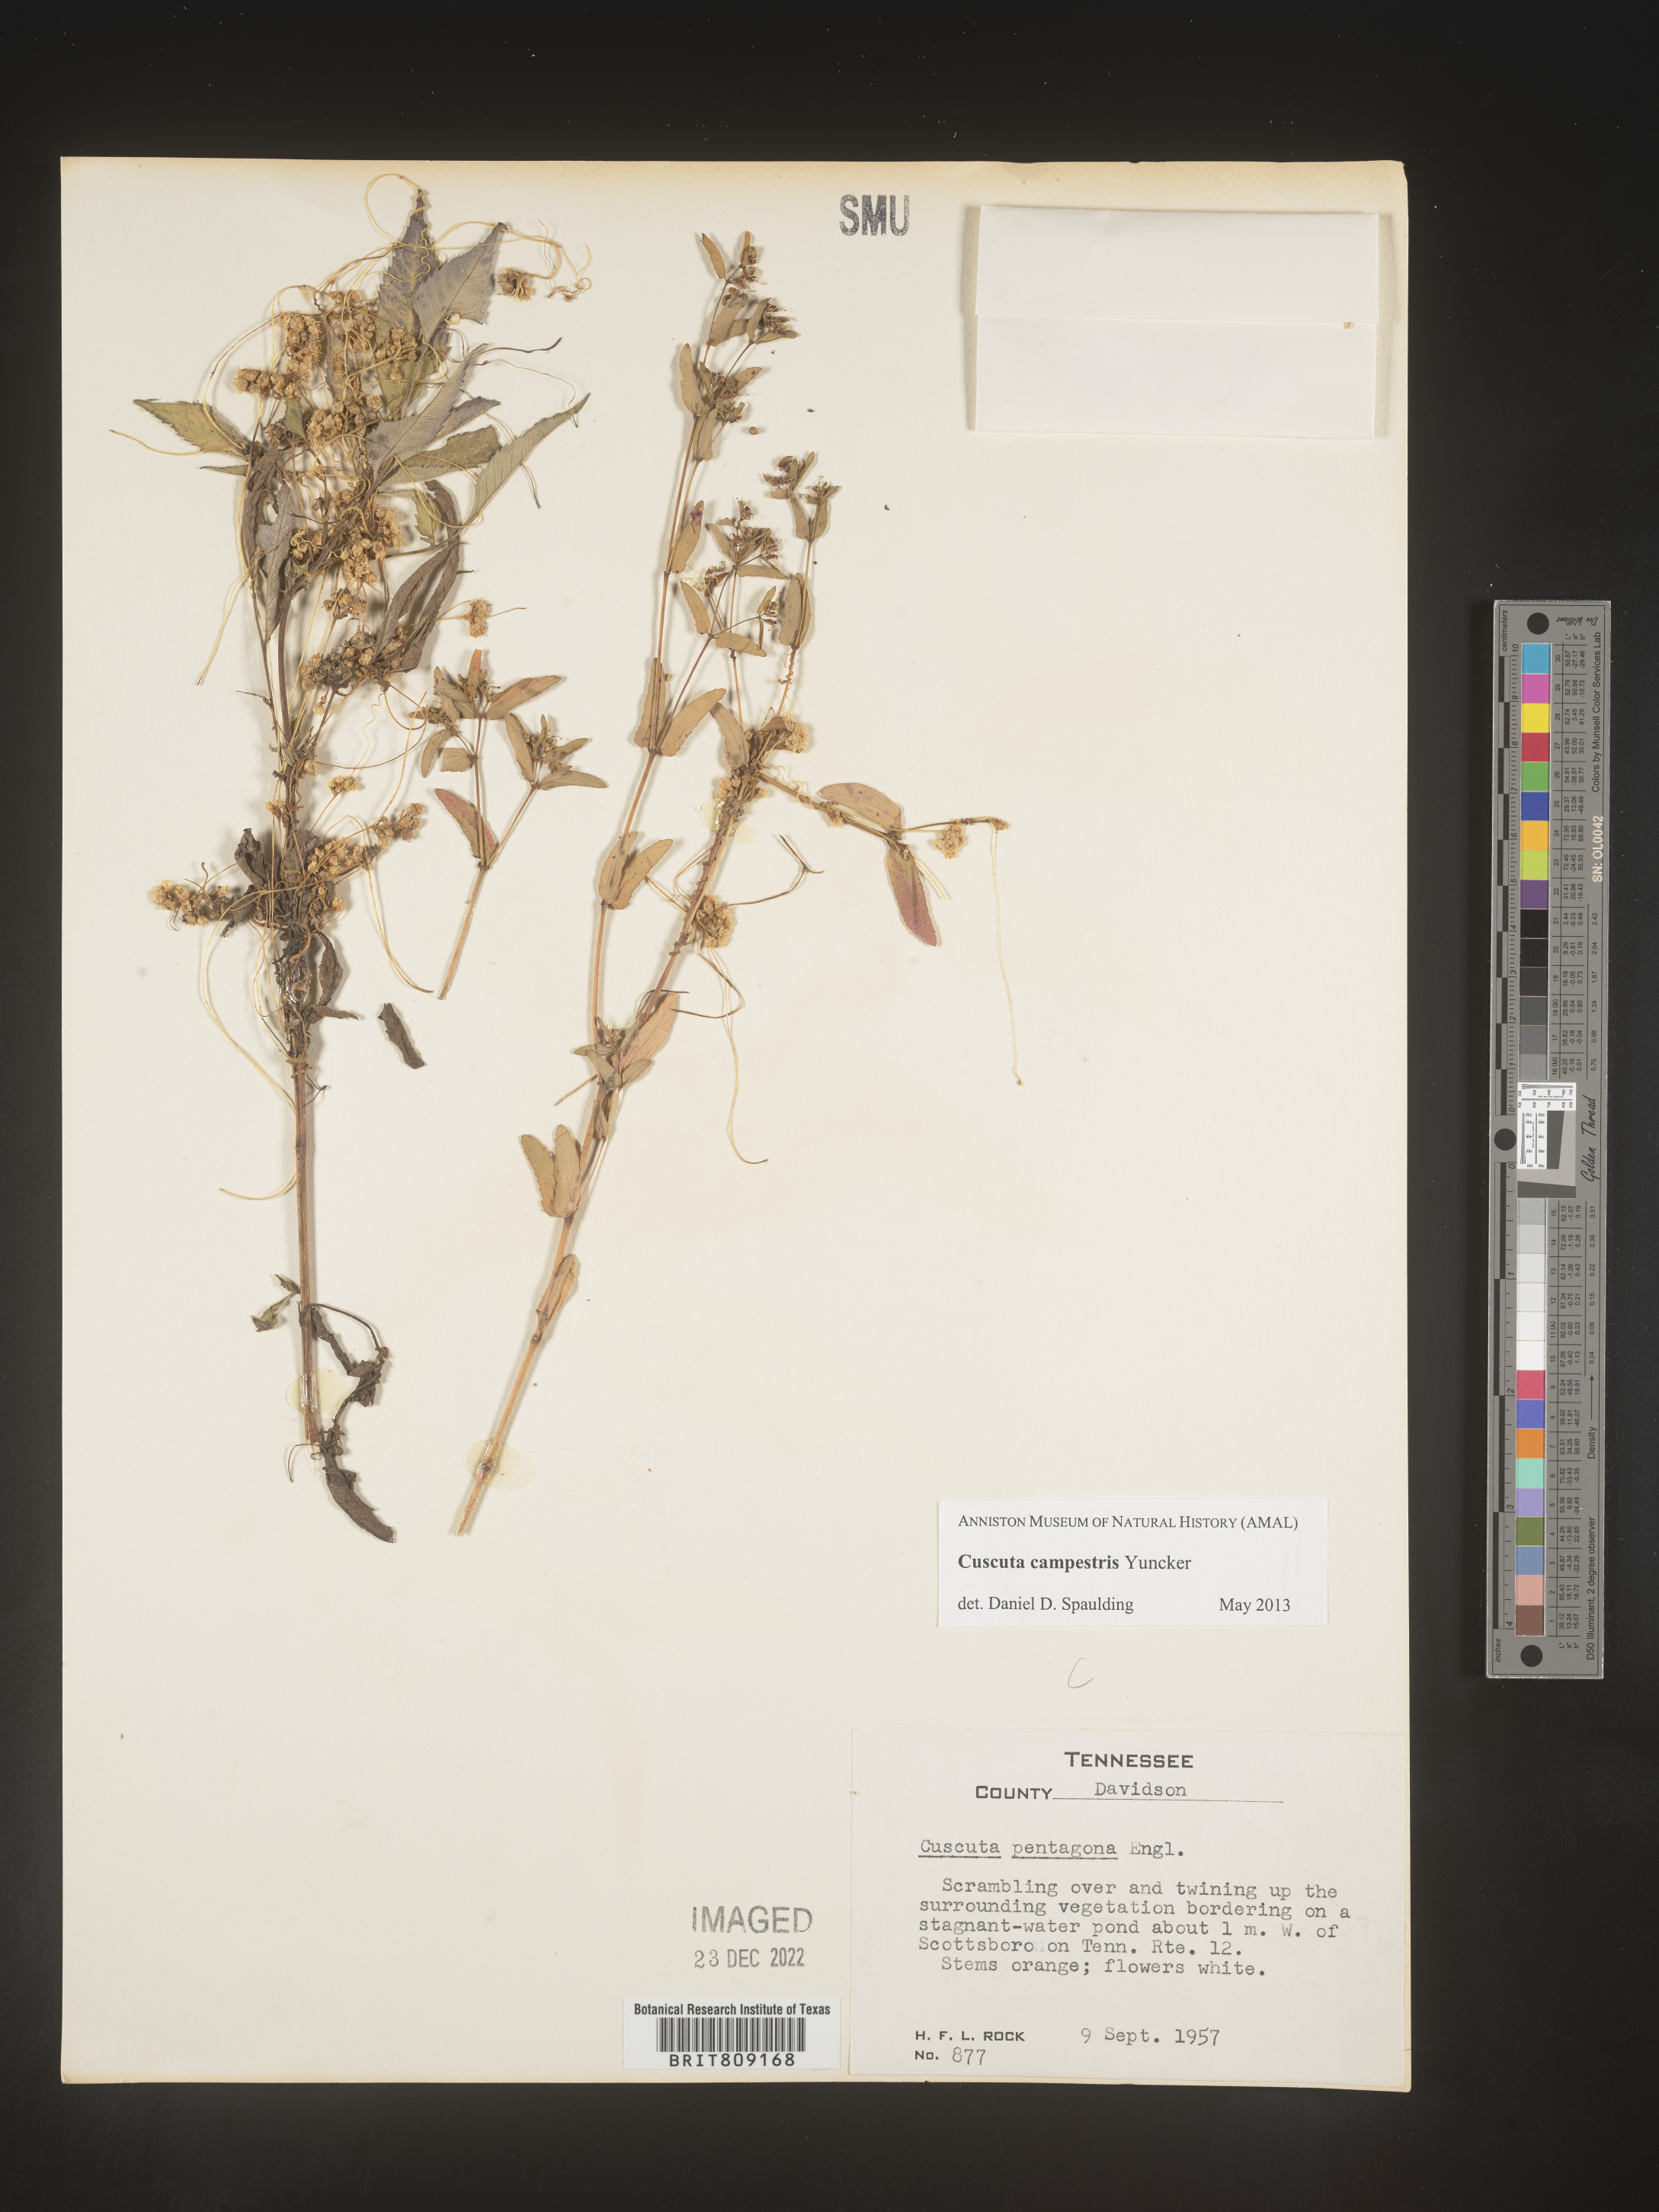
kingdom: Plantae
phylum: Tracheophyta
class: Magnoliopsida
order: Solanales
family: Convolvulaceae
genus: Cuscuta
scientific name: Cuscuta campestris
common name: Yellow dodder
